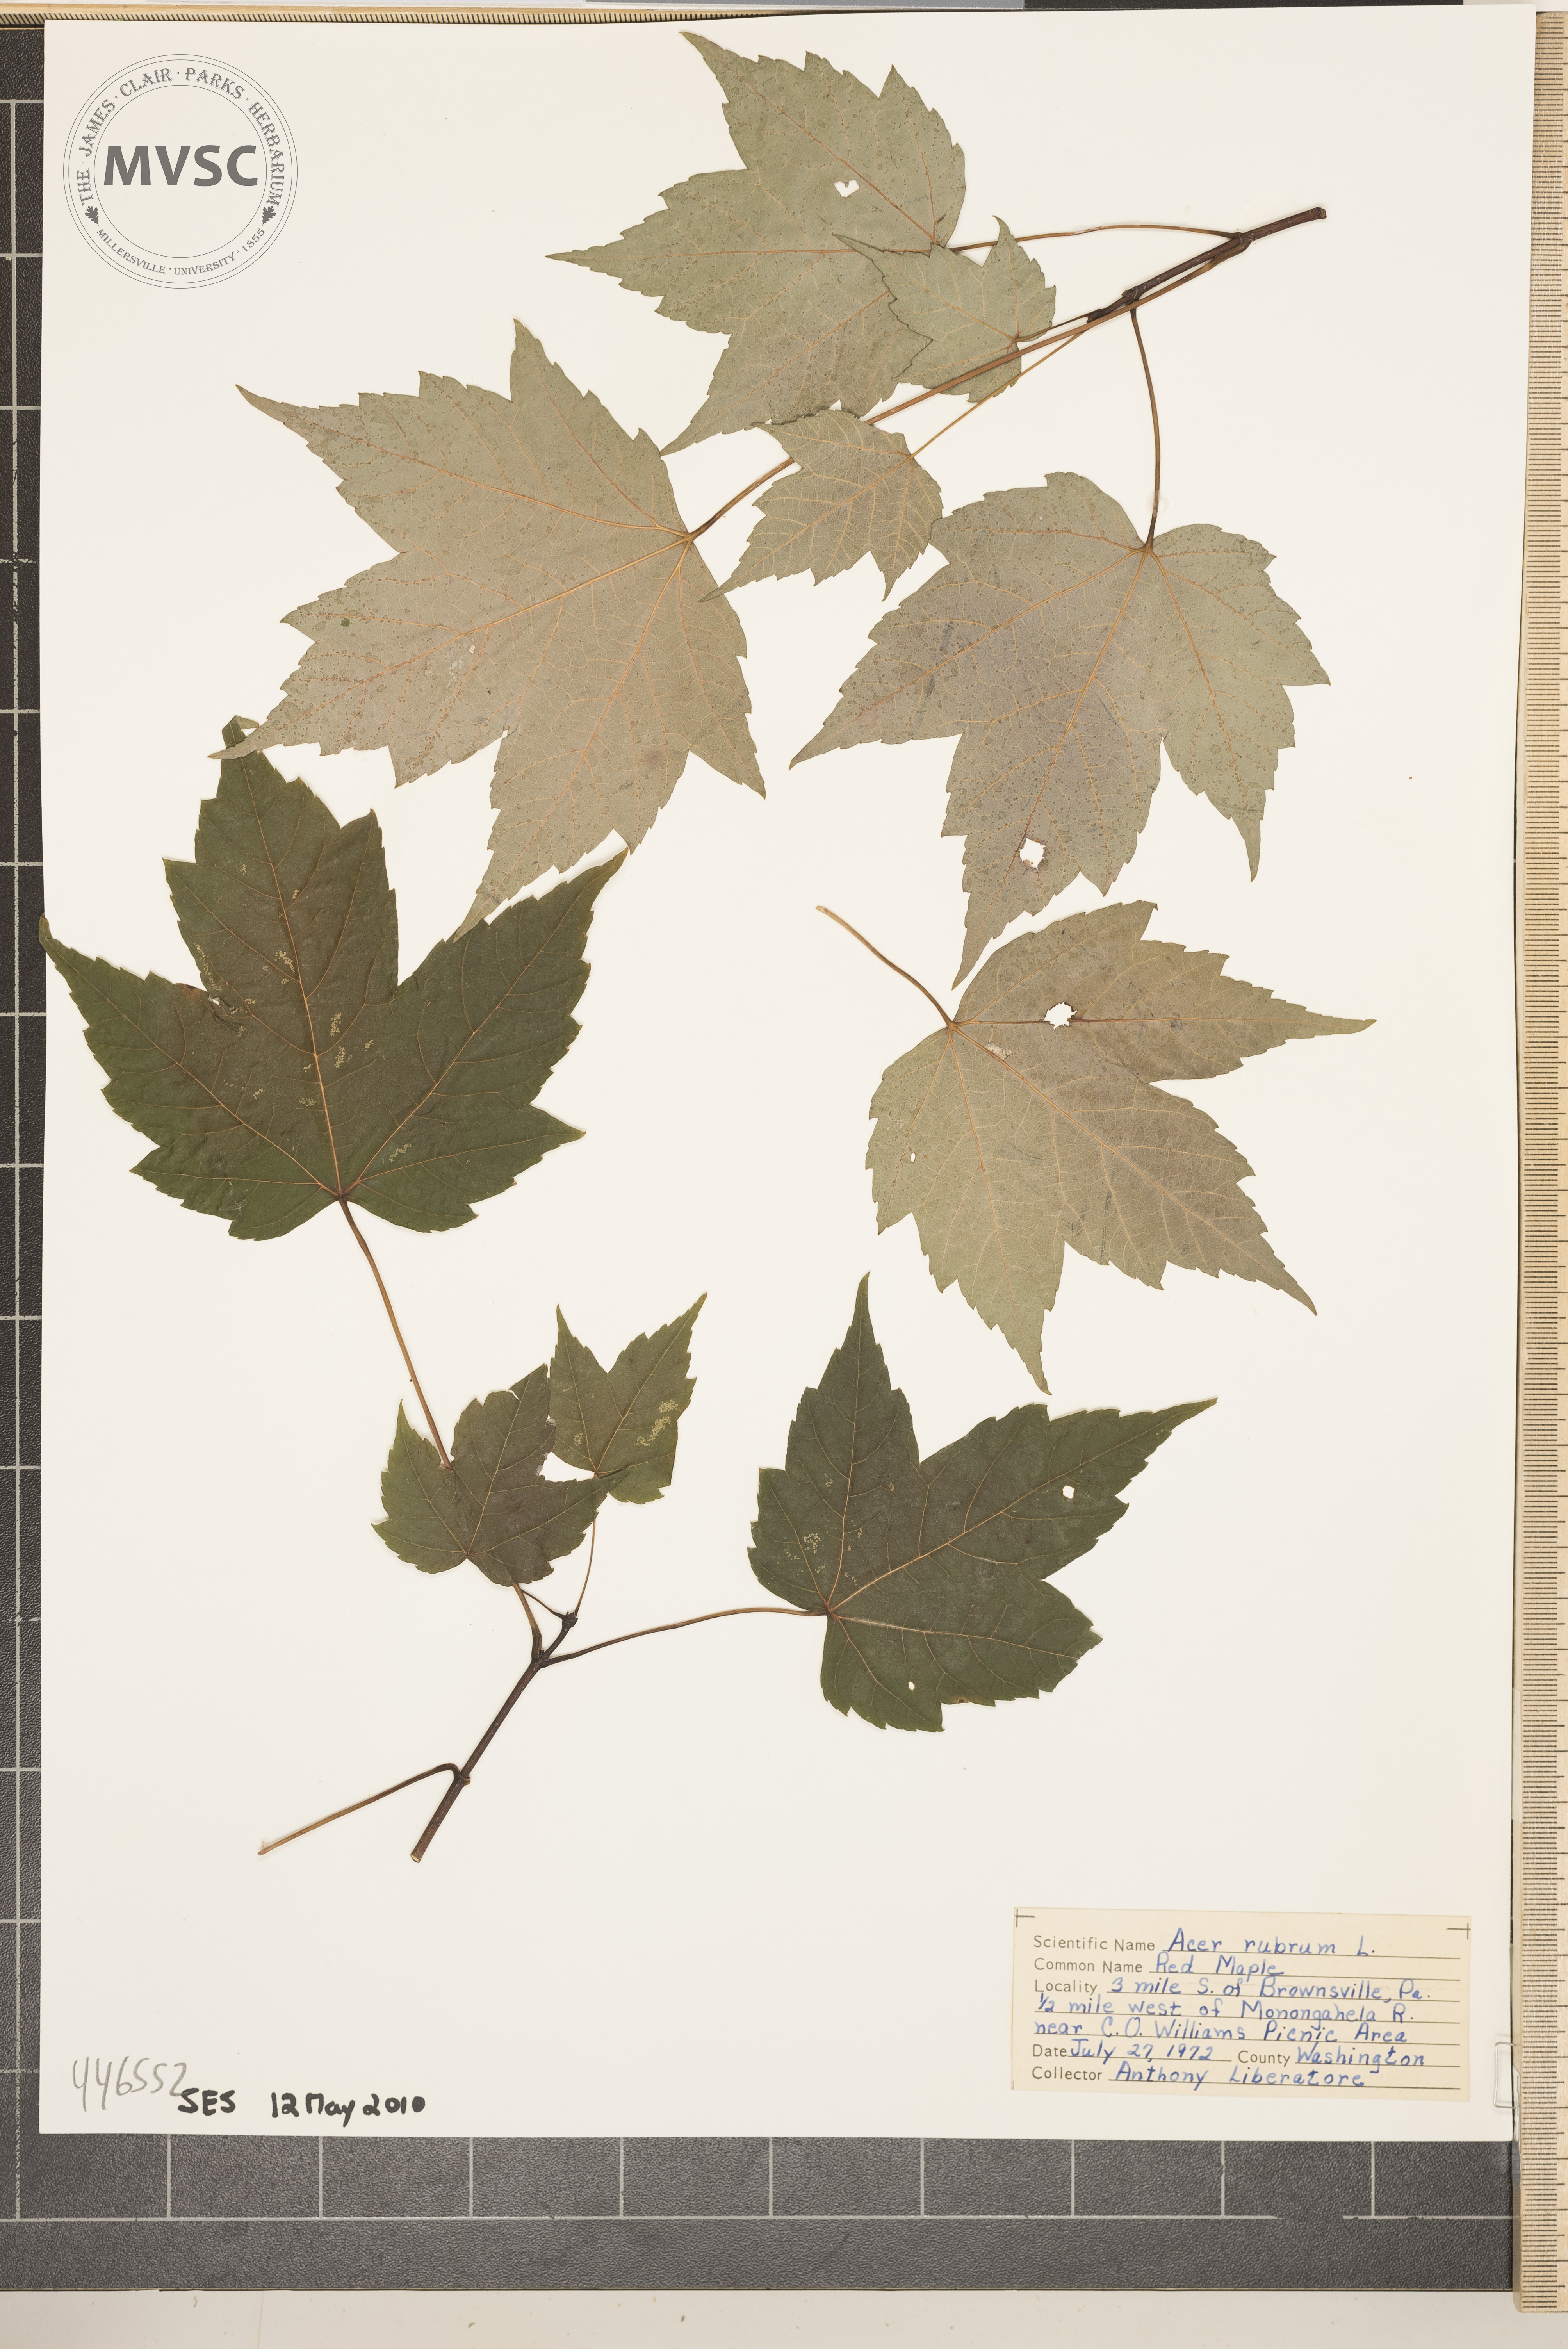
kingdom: Plantae
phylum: Tracheophyta
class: Magnoliopsida
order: Sapindales
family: Sapindaceae
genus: Acer
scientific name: Acer rubrum
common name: Red maple
